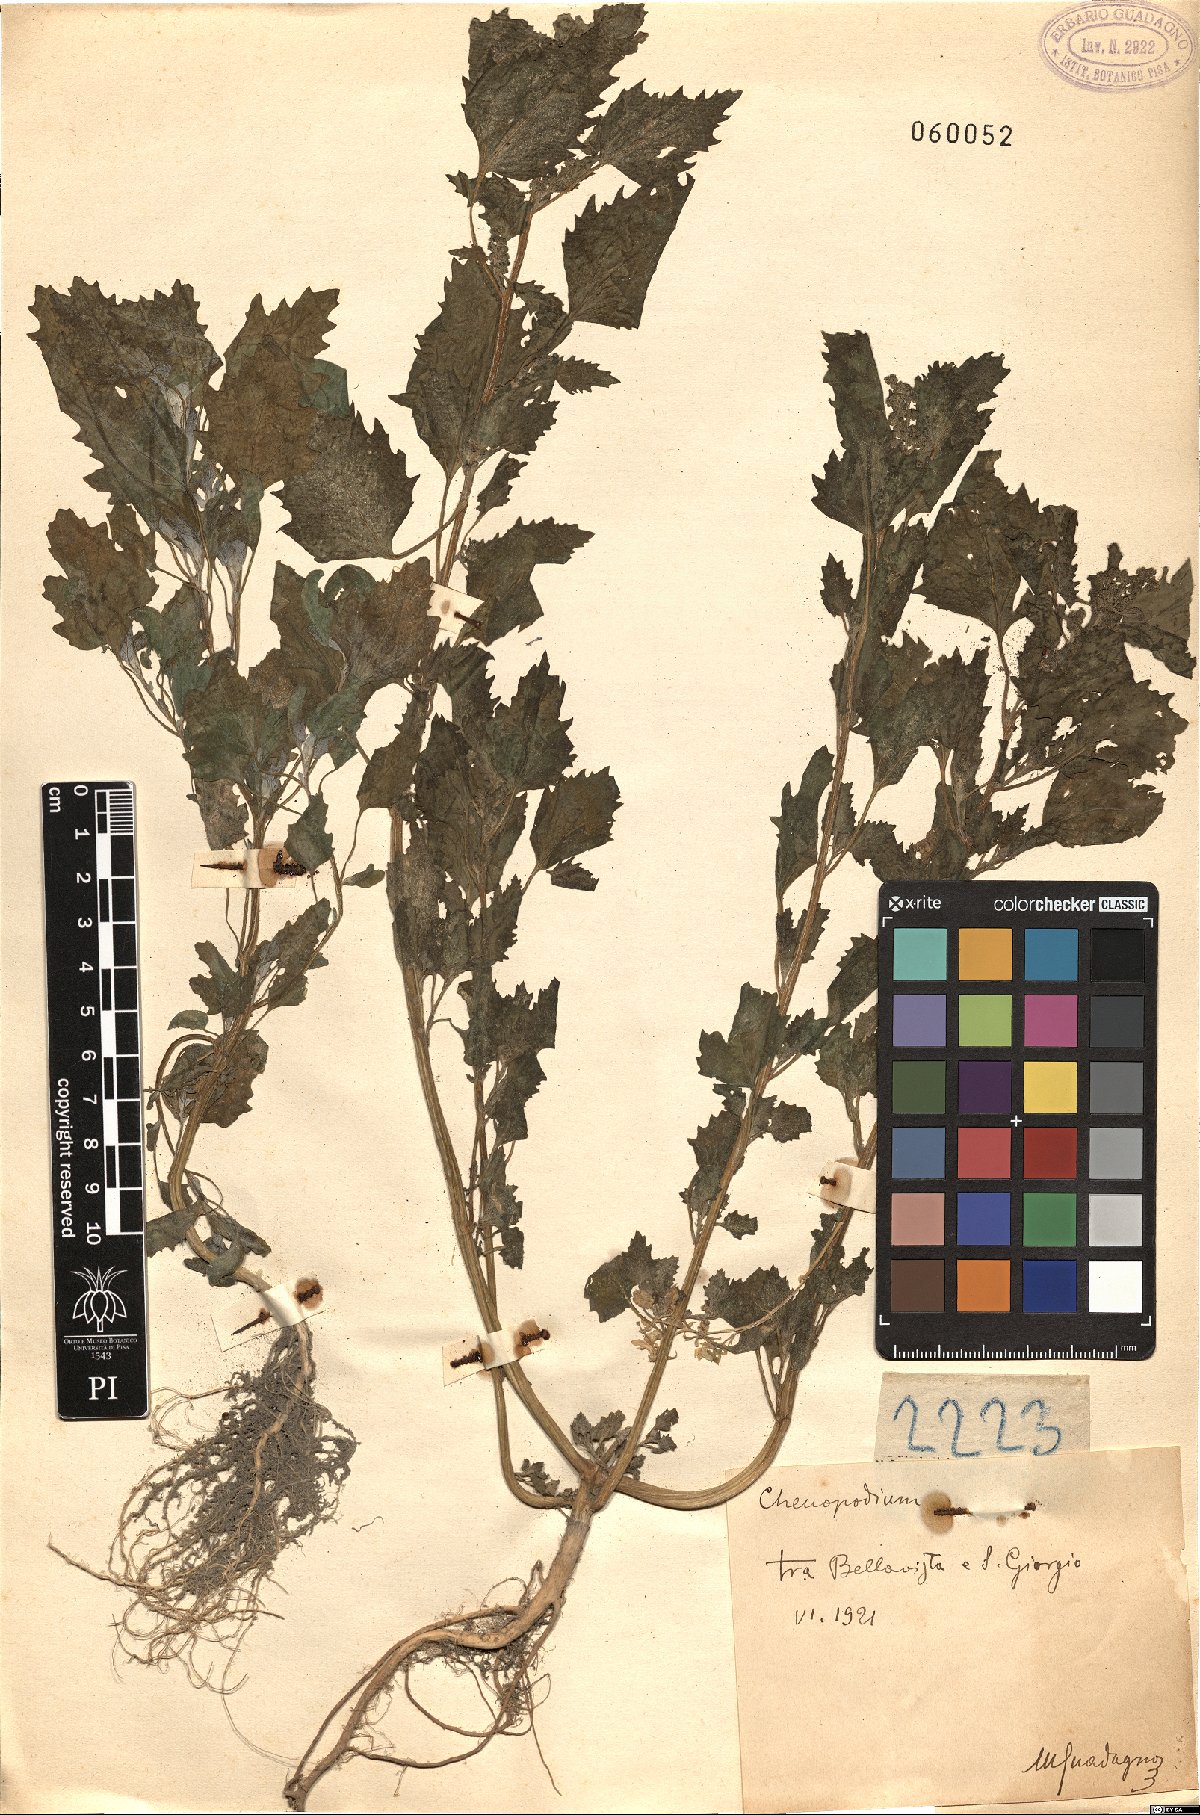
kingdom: Plantae
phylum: Tracheophyta
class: Magnoliopsida
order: Caryophyllales
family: Amaranthaceae
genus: Chenopodium
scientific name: Chenopodium
